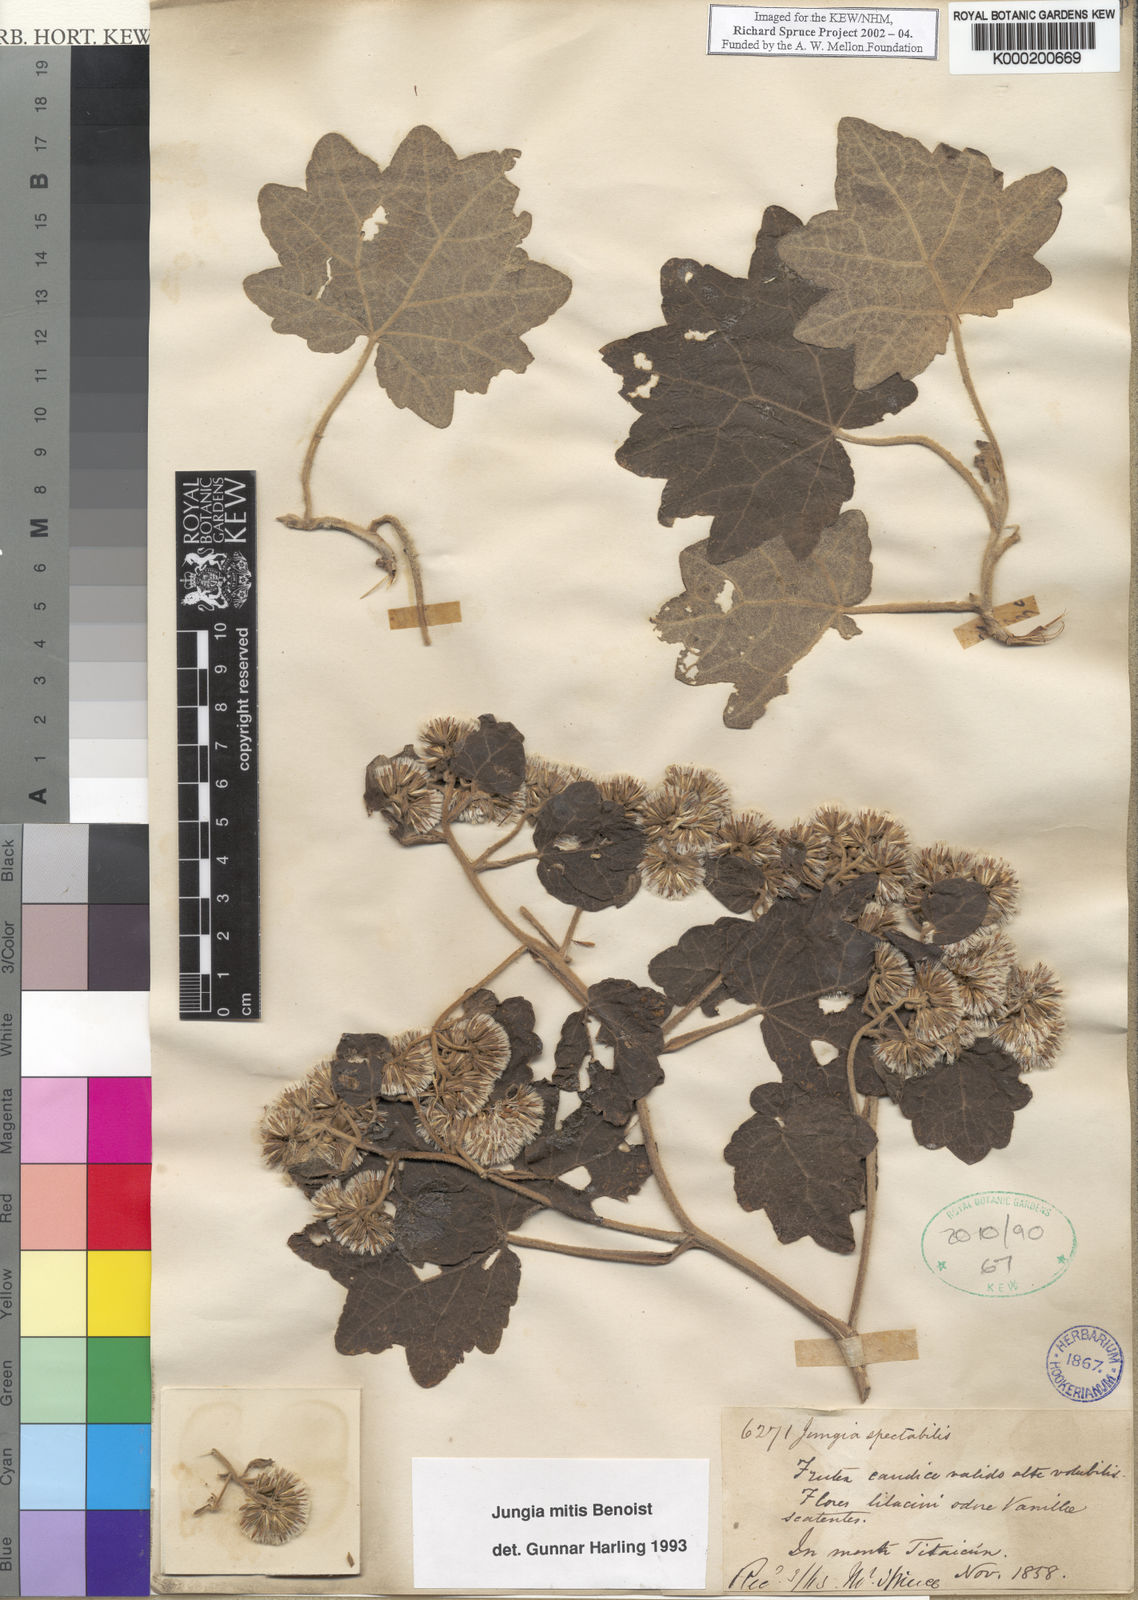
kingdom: Plantae
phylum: Tracheophyta
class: Magnoliopsida
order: Asterales
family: Asteraceae
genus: Jungia
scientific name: Jungia mitis
